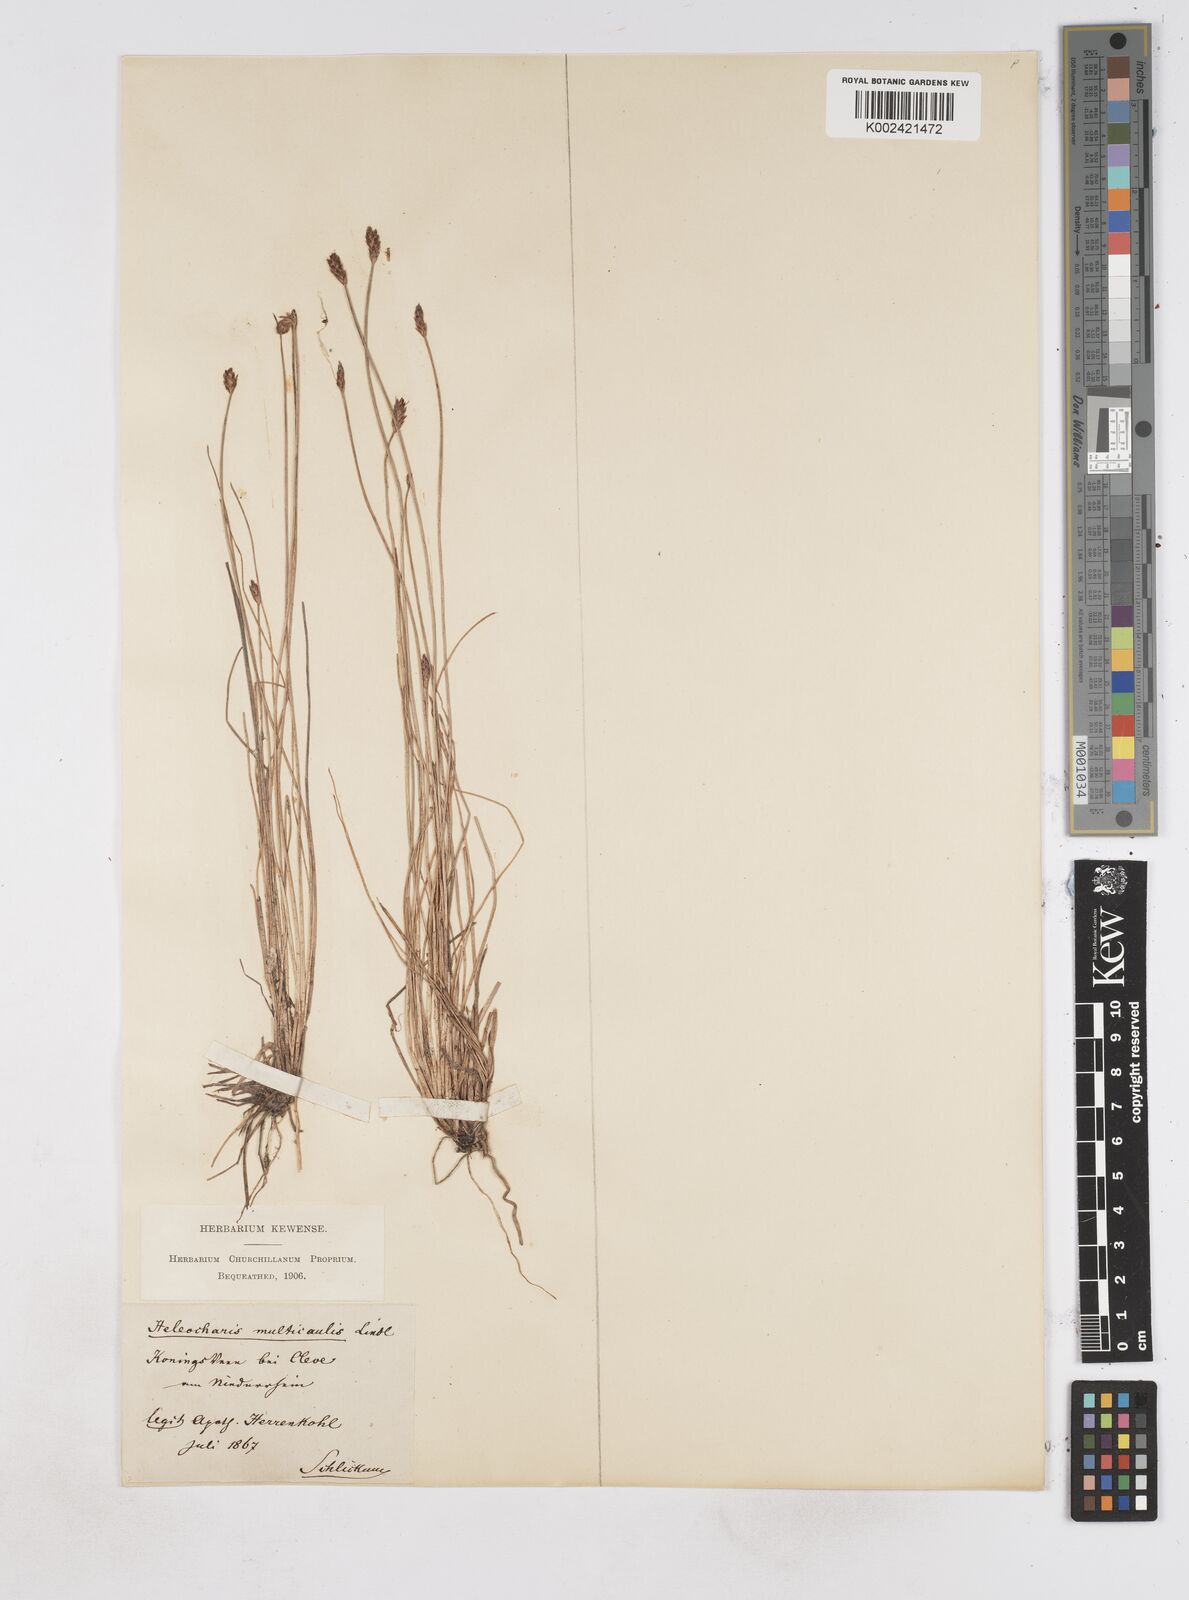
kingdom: Plantae
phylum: Tracheophyta
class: Liliopsida
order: Poales
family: Cyperaceae
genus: Eleocharis
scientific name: Eleocharis uniglumis
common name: Slender spike-rush
